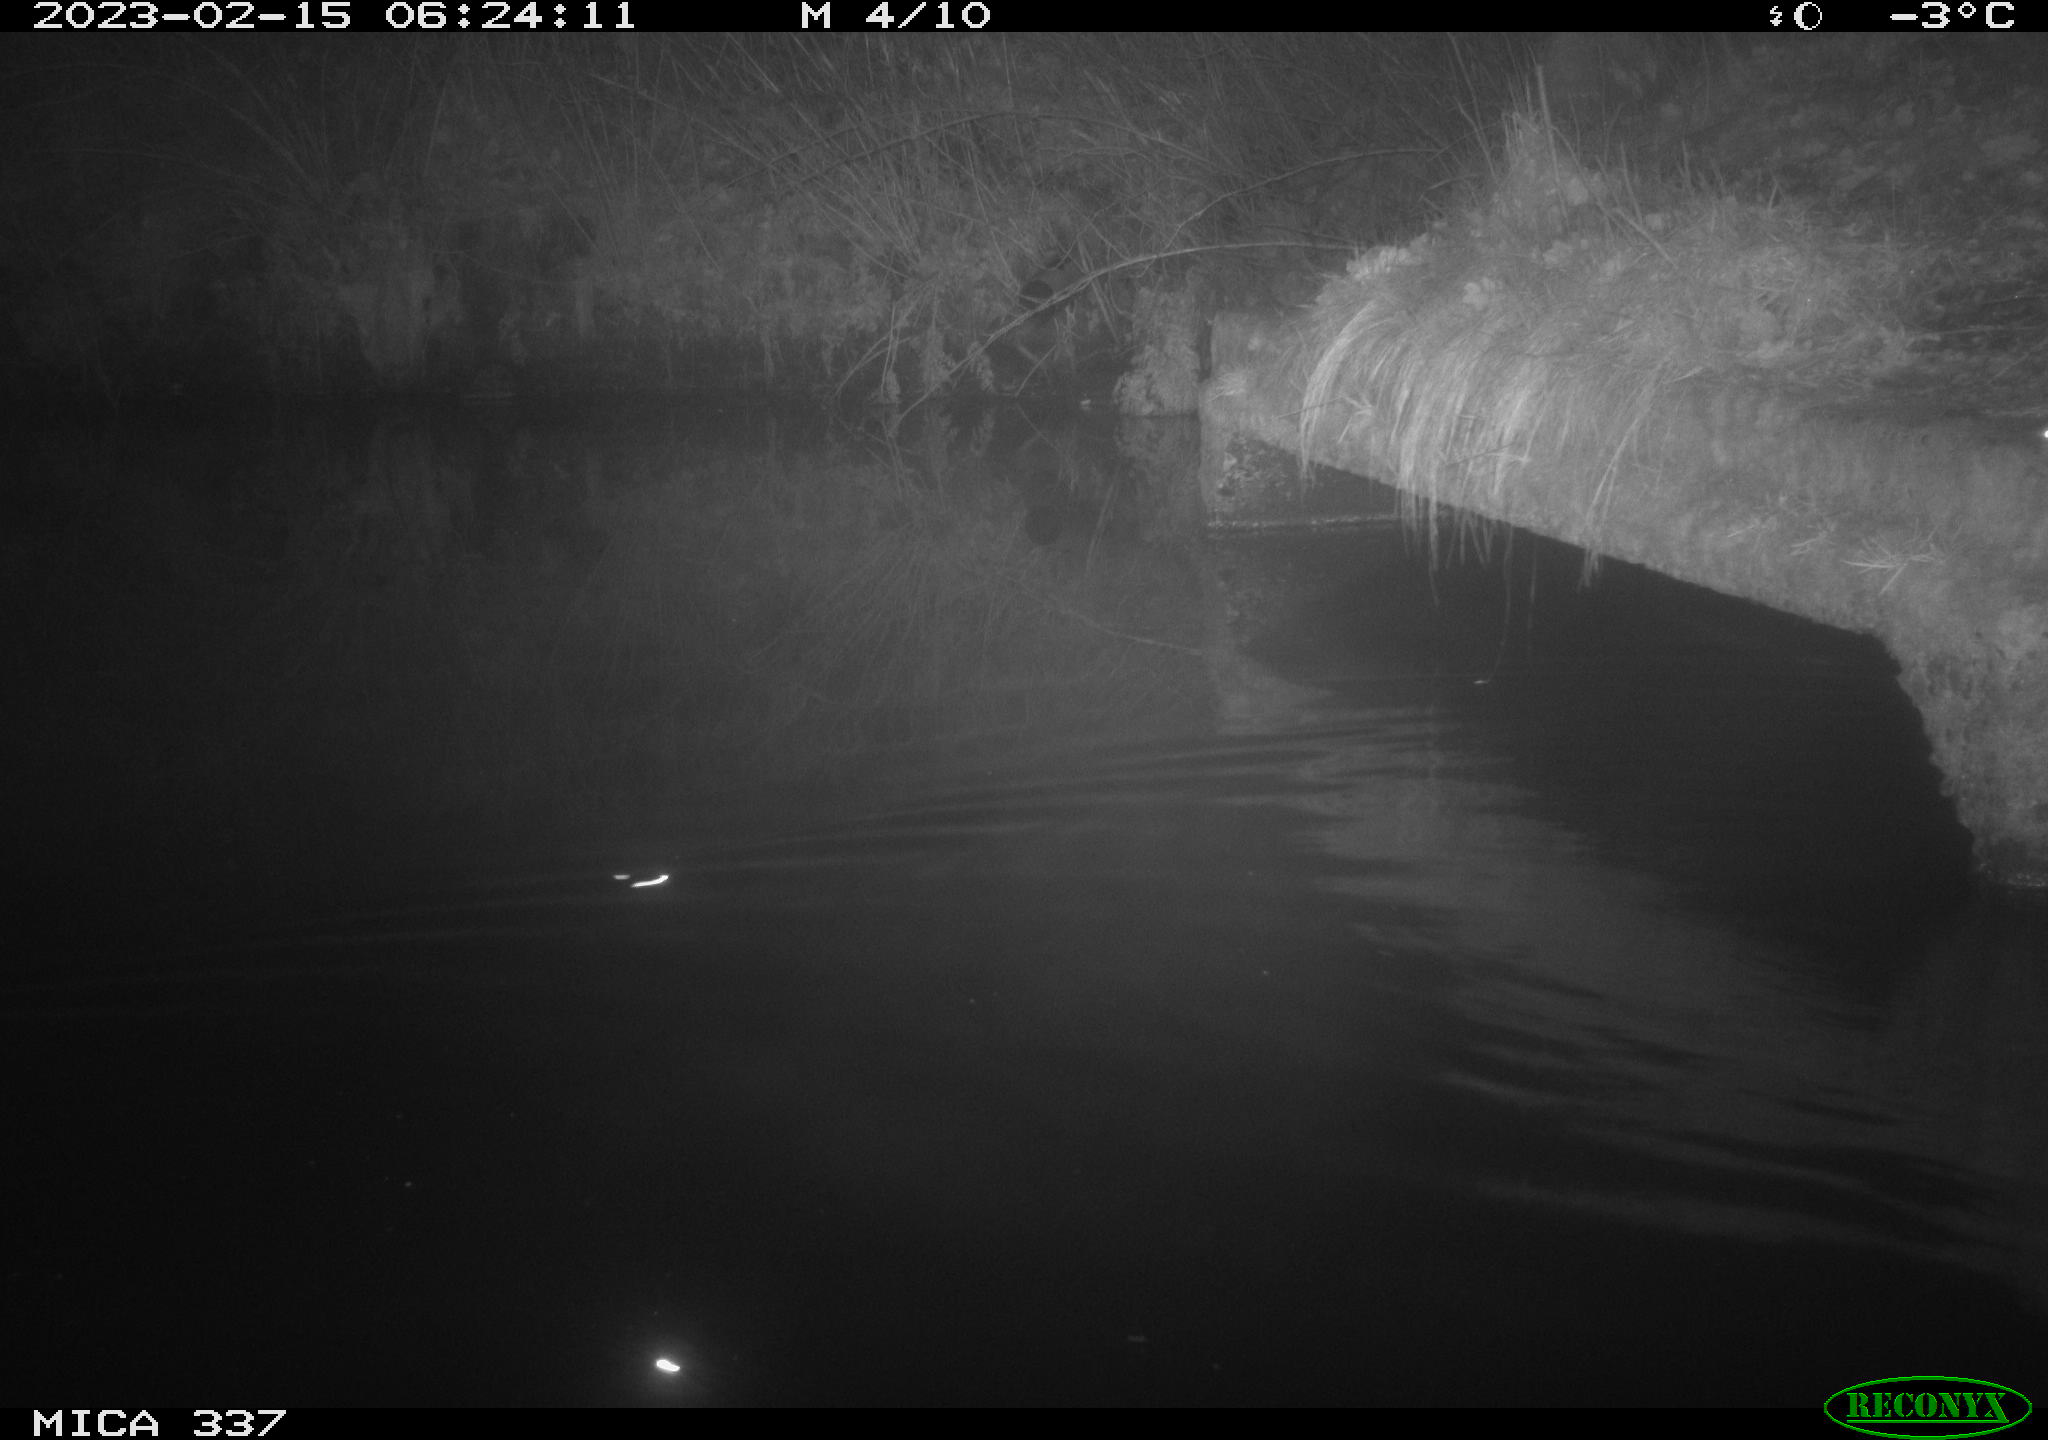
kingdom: Animalia
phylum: Chordata
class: Mammalia
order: Rodentia
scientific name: Rodentia
